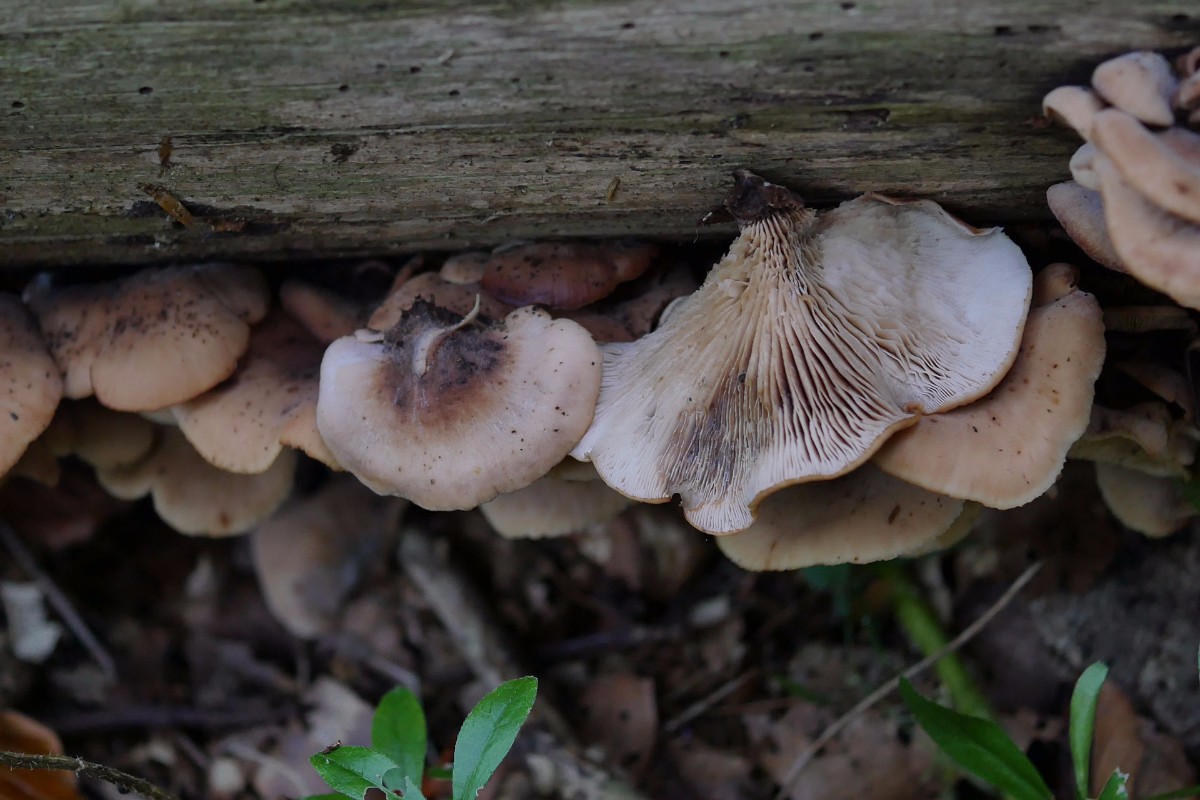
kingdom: Fungi
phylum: Basidiomycota
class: Agaricomycetes
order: Russulales
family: Auriscalpiaceae
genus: Lentinellus
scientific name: Lentinellus ursinus
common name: børstehåret savbladhat
